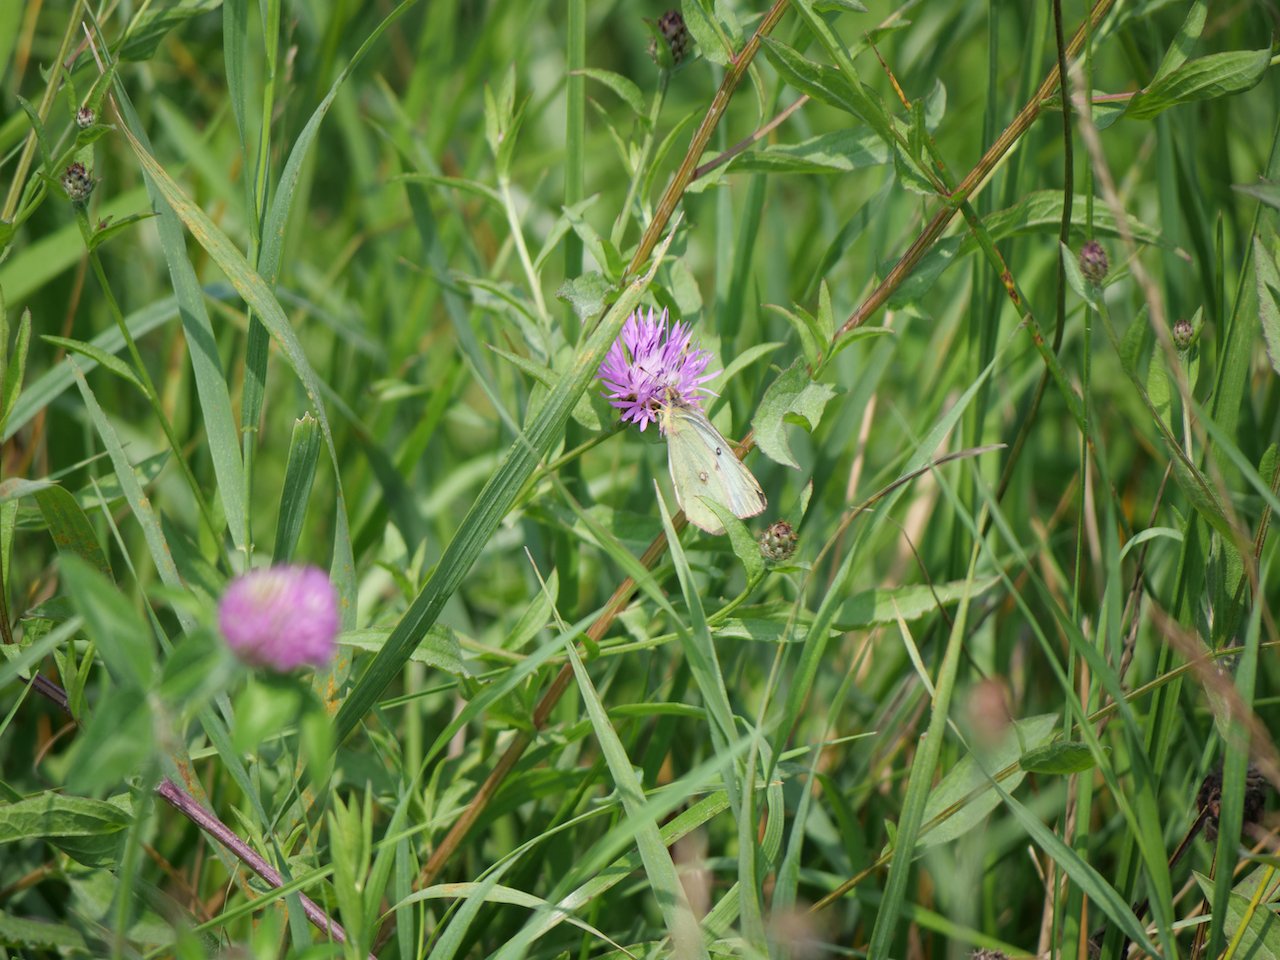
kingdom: Animalia
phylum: Arthropoda
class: Insecta
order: Lepidoptera
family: Pieridae
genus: Colias
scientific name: Colias philodice
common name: Clouded Sulphur
